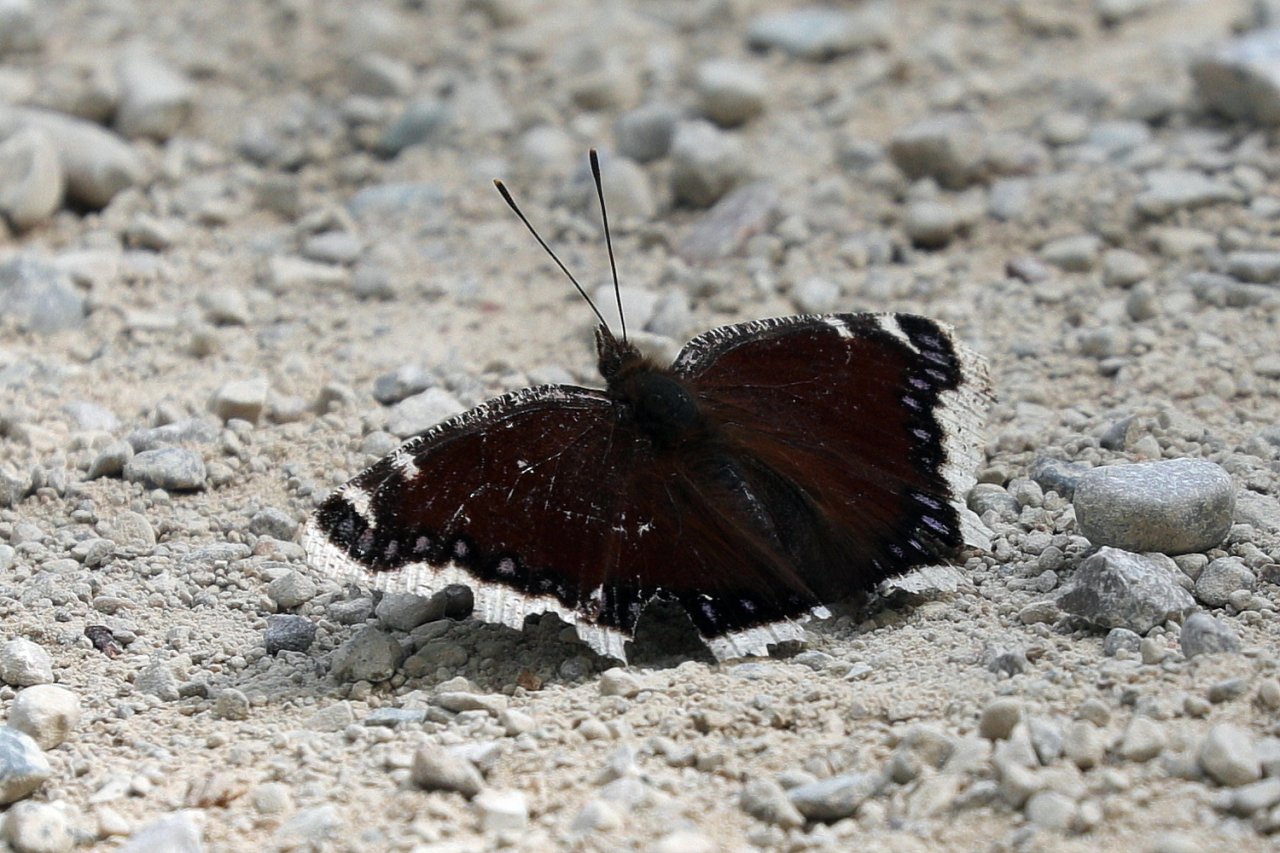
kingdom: Animalia
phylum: Arthropoda
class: Insecta
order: Lepidoptera
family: Nymphalidae
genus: Nymphalis
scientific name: Nymphalis antiopa
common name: Mourning Cloak
